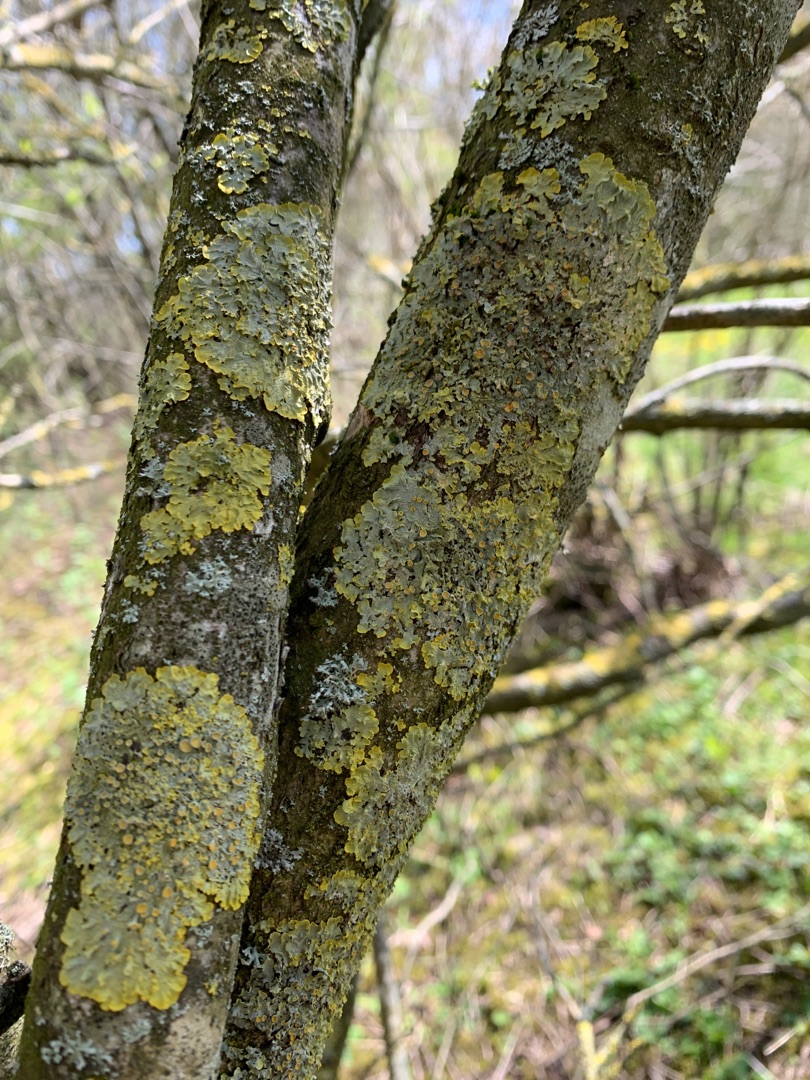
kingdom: Fungi
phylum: Ascomycota
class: Lecanoromycetes
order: Teloschistales
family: Teloschistaceae
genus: Xanthoria
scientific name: Xanthoria parietina
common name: Almindelig væggelav
